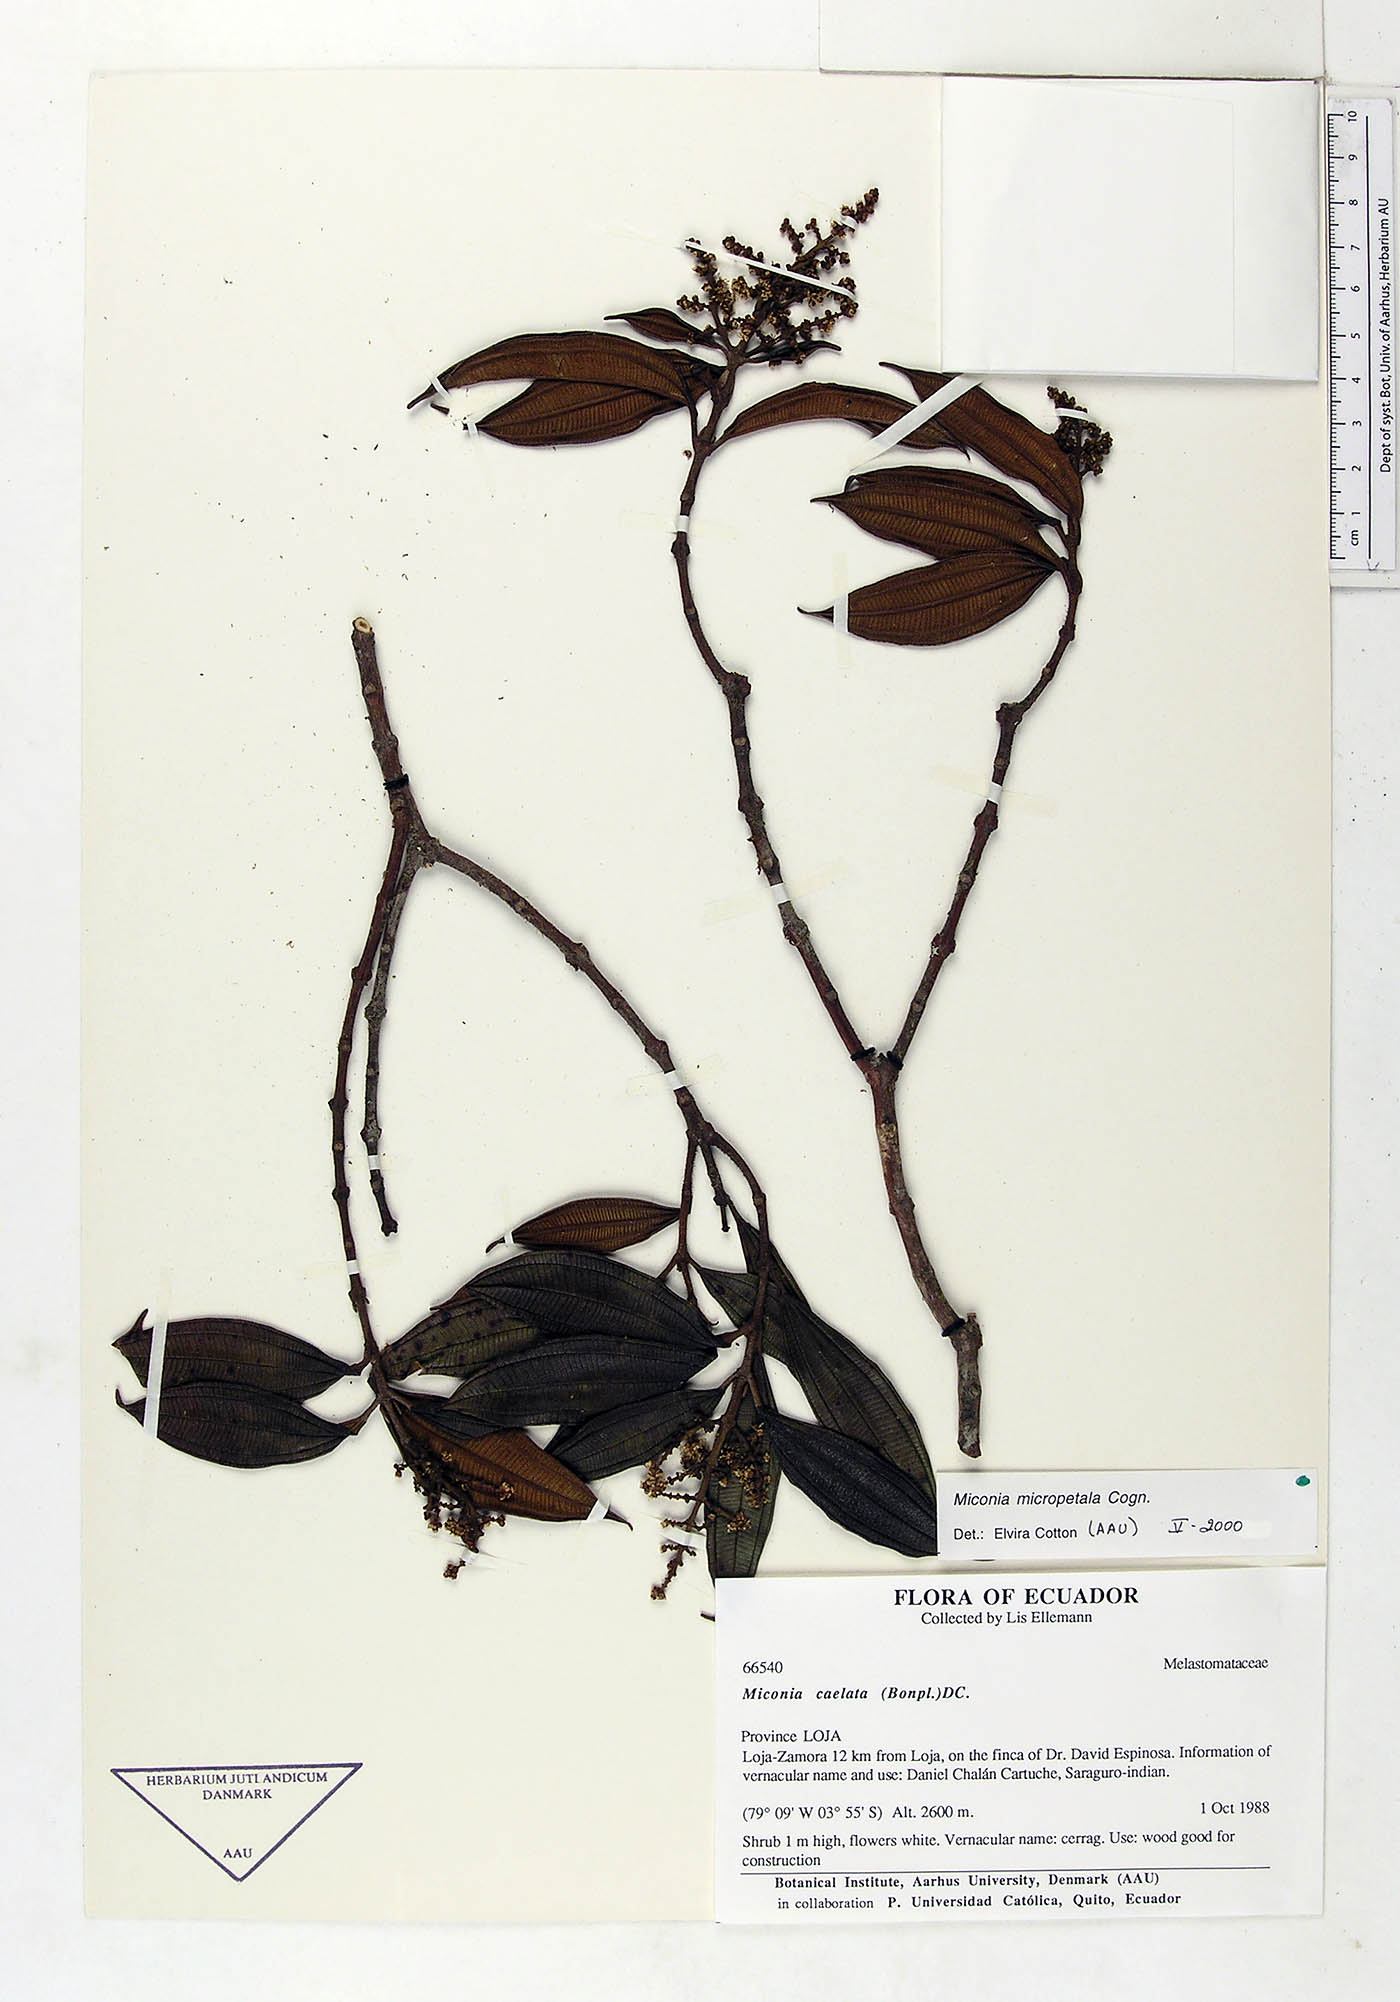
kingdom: Plantae
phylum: Tracheophyta
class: Magnoliopsida
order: Myrtales
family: Melastomataceae
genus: Miconia
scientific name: Miconia caelata
